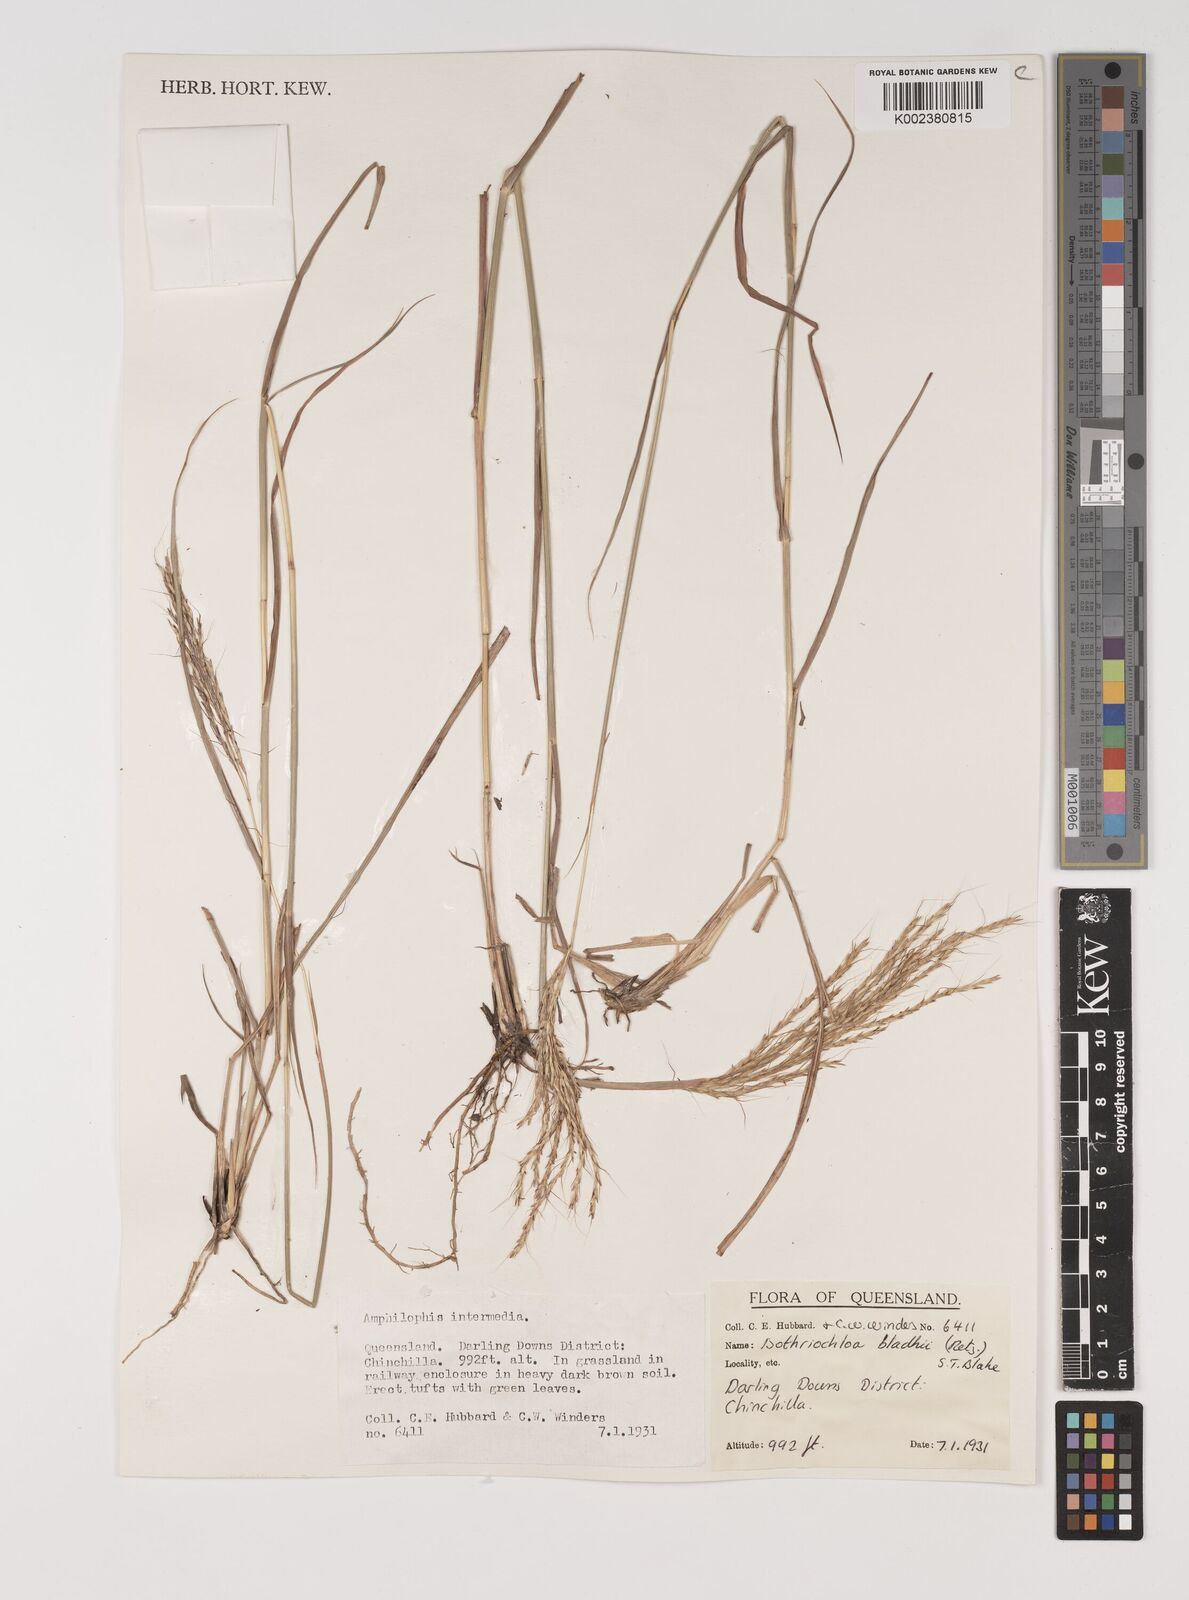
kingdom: Plantae
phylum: Tracheophyta
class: Liliopsida
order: Poales
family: Poaceae
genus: Bothriochloa
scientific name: Bothriochloa bladhii
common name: Caucasian bluestem
